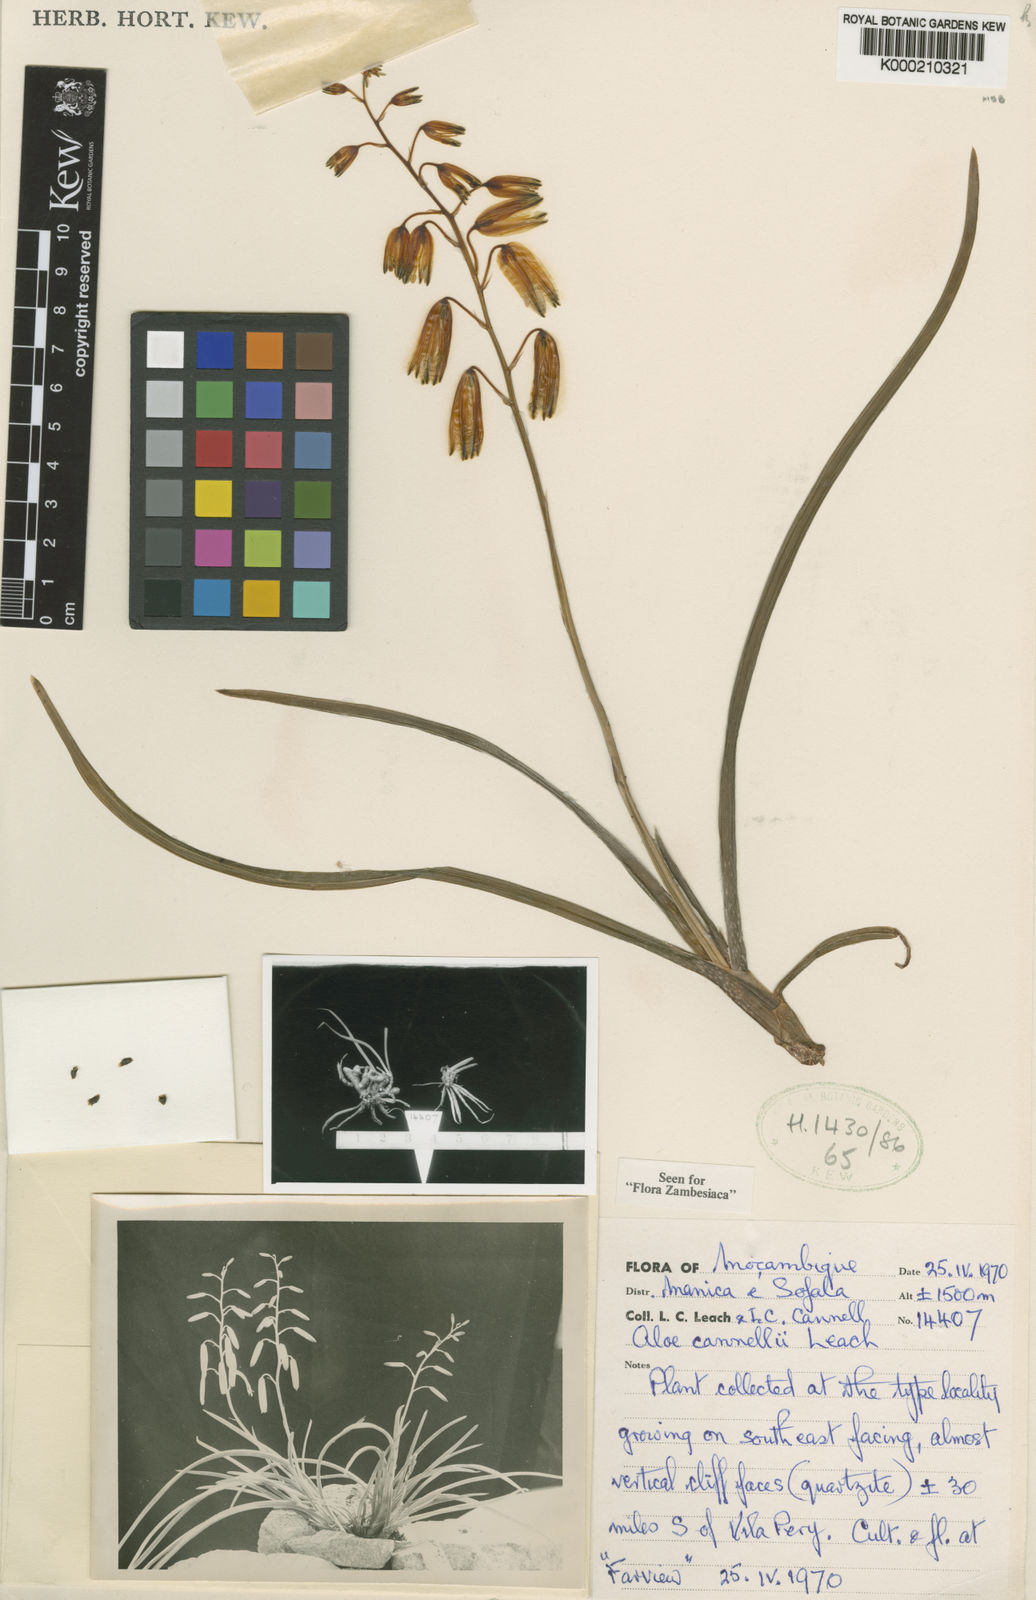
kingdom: Plantae
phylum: Tracheophyta
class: Liliopsida
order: Asparagales
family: Asphodelaceae
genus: Aloe
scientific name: Aloe cannellii
